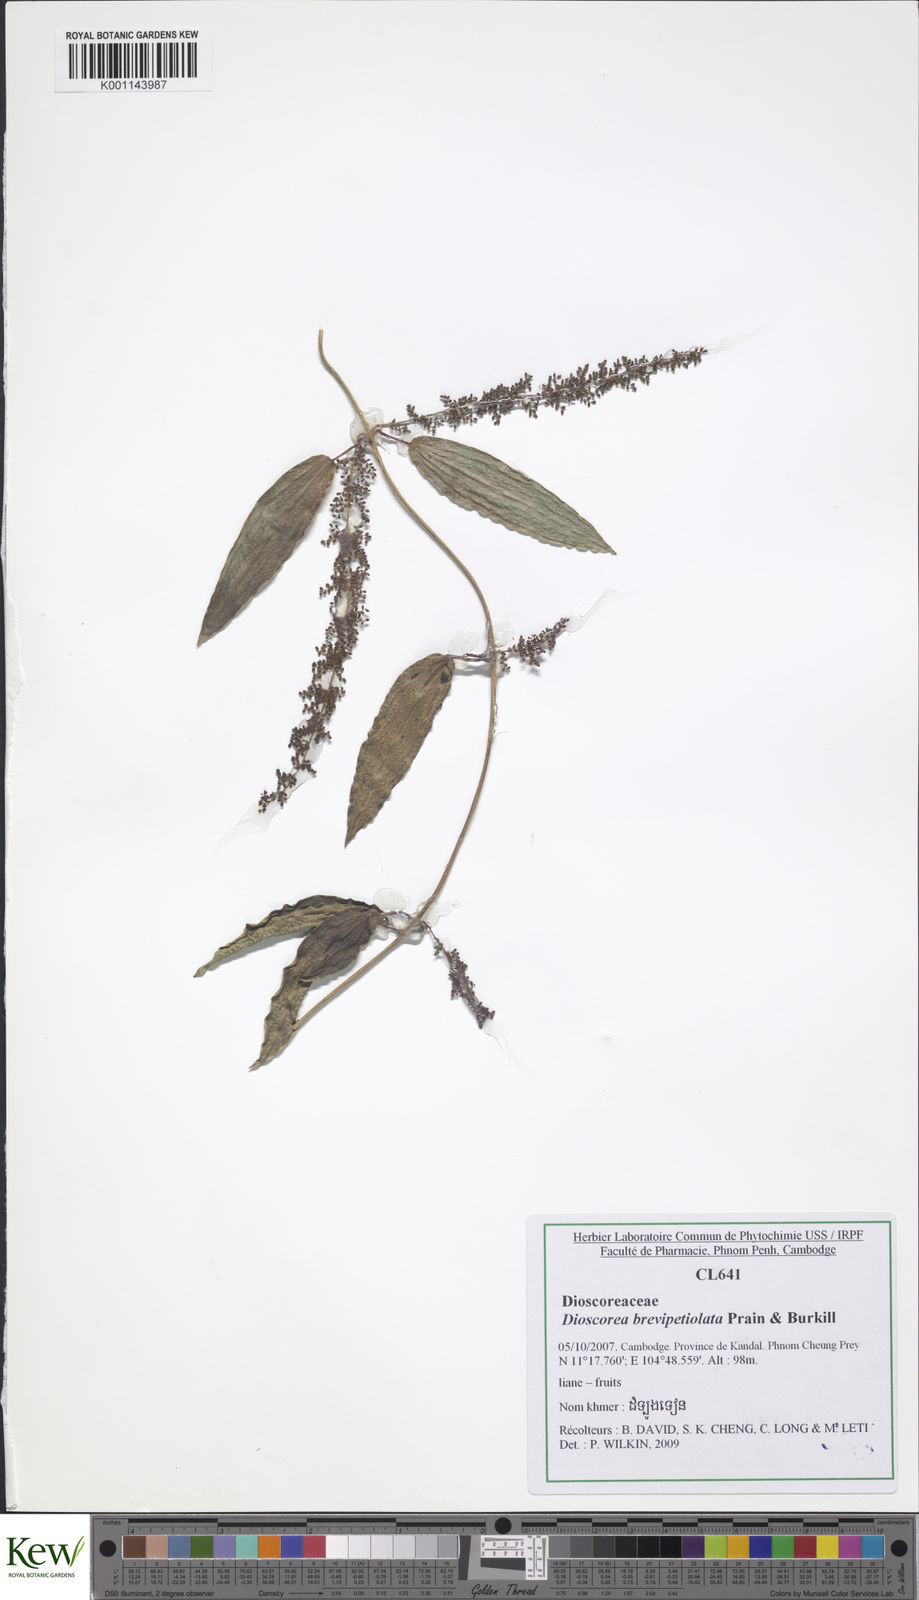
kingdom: Plantae
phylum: Tracheophyta
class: Liliopsida
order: Dioscoreales
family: Dioscoreaceae
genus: Dioscorea
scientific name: Dioscorea brevipetiolata
